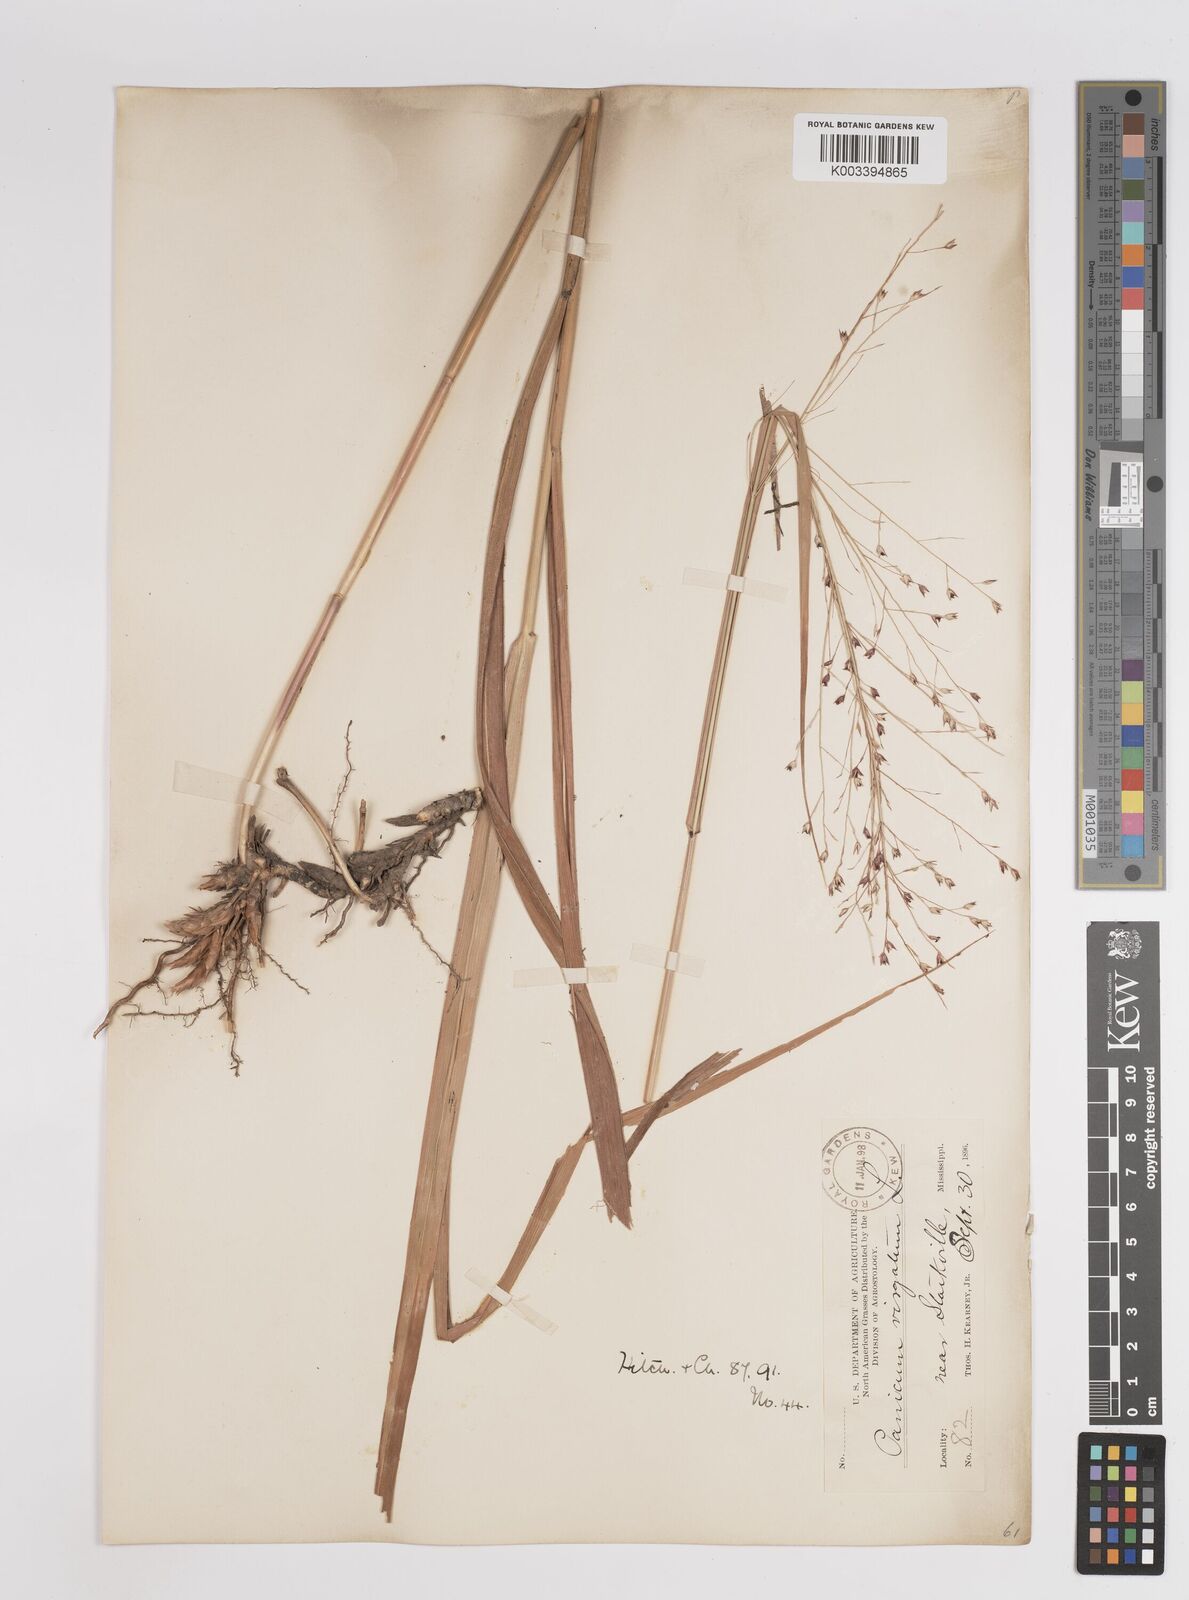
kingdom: Plantae
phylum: Tracheophyta
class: Liliopsida
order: Poales
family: Poaceae
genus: Panicum
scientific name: Panicum virgatum
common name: Switchgrass
